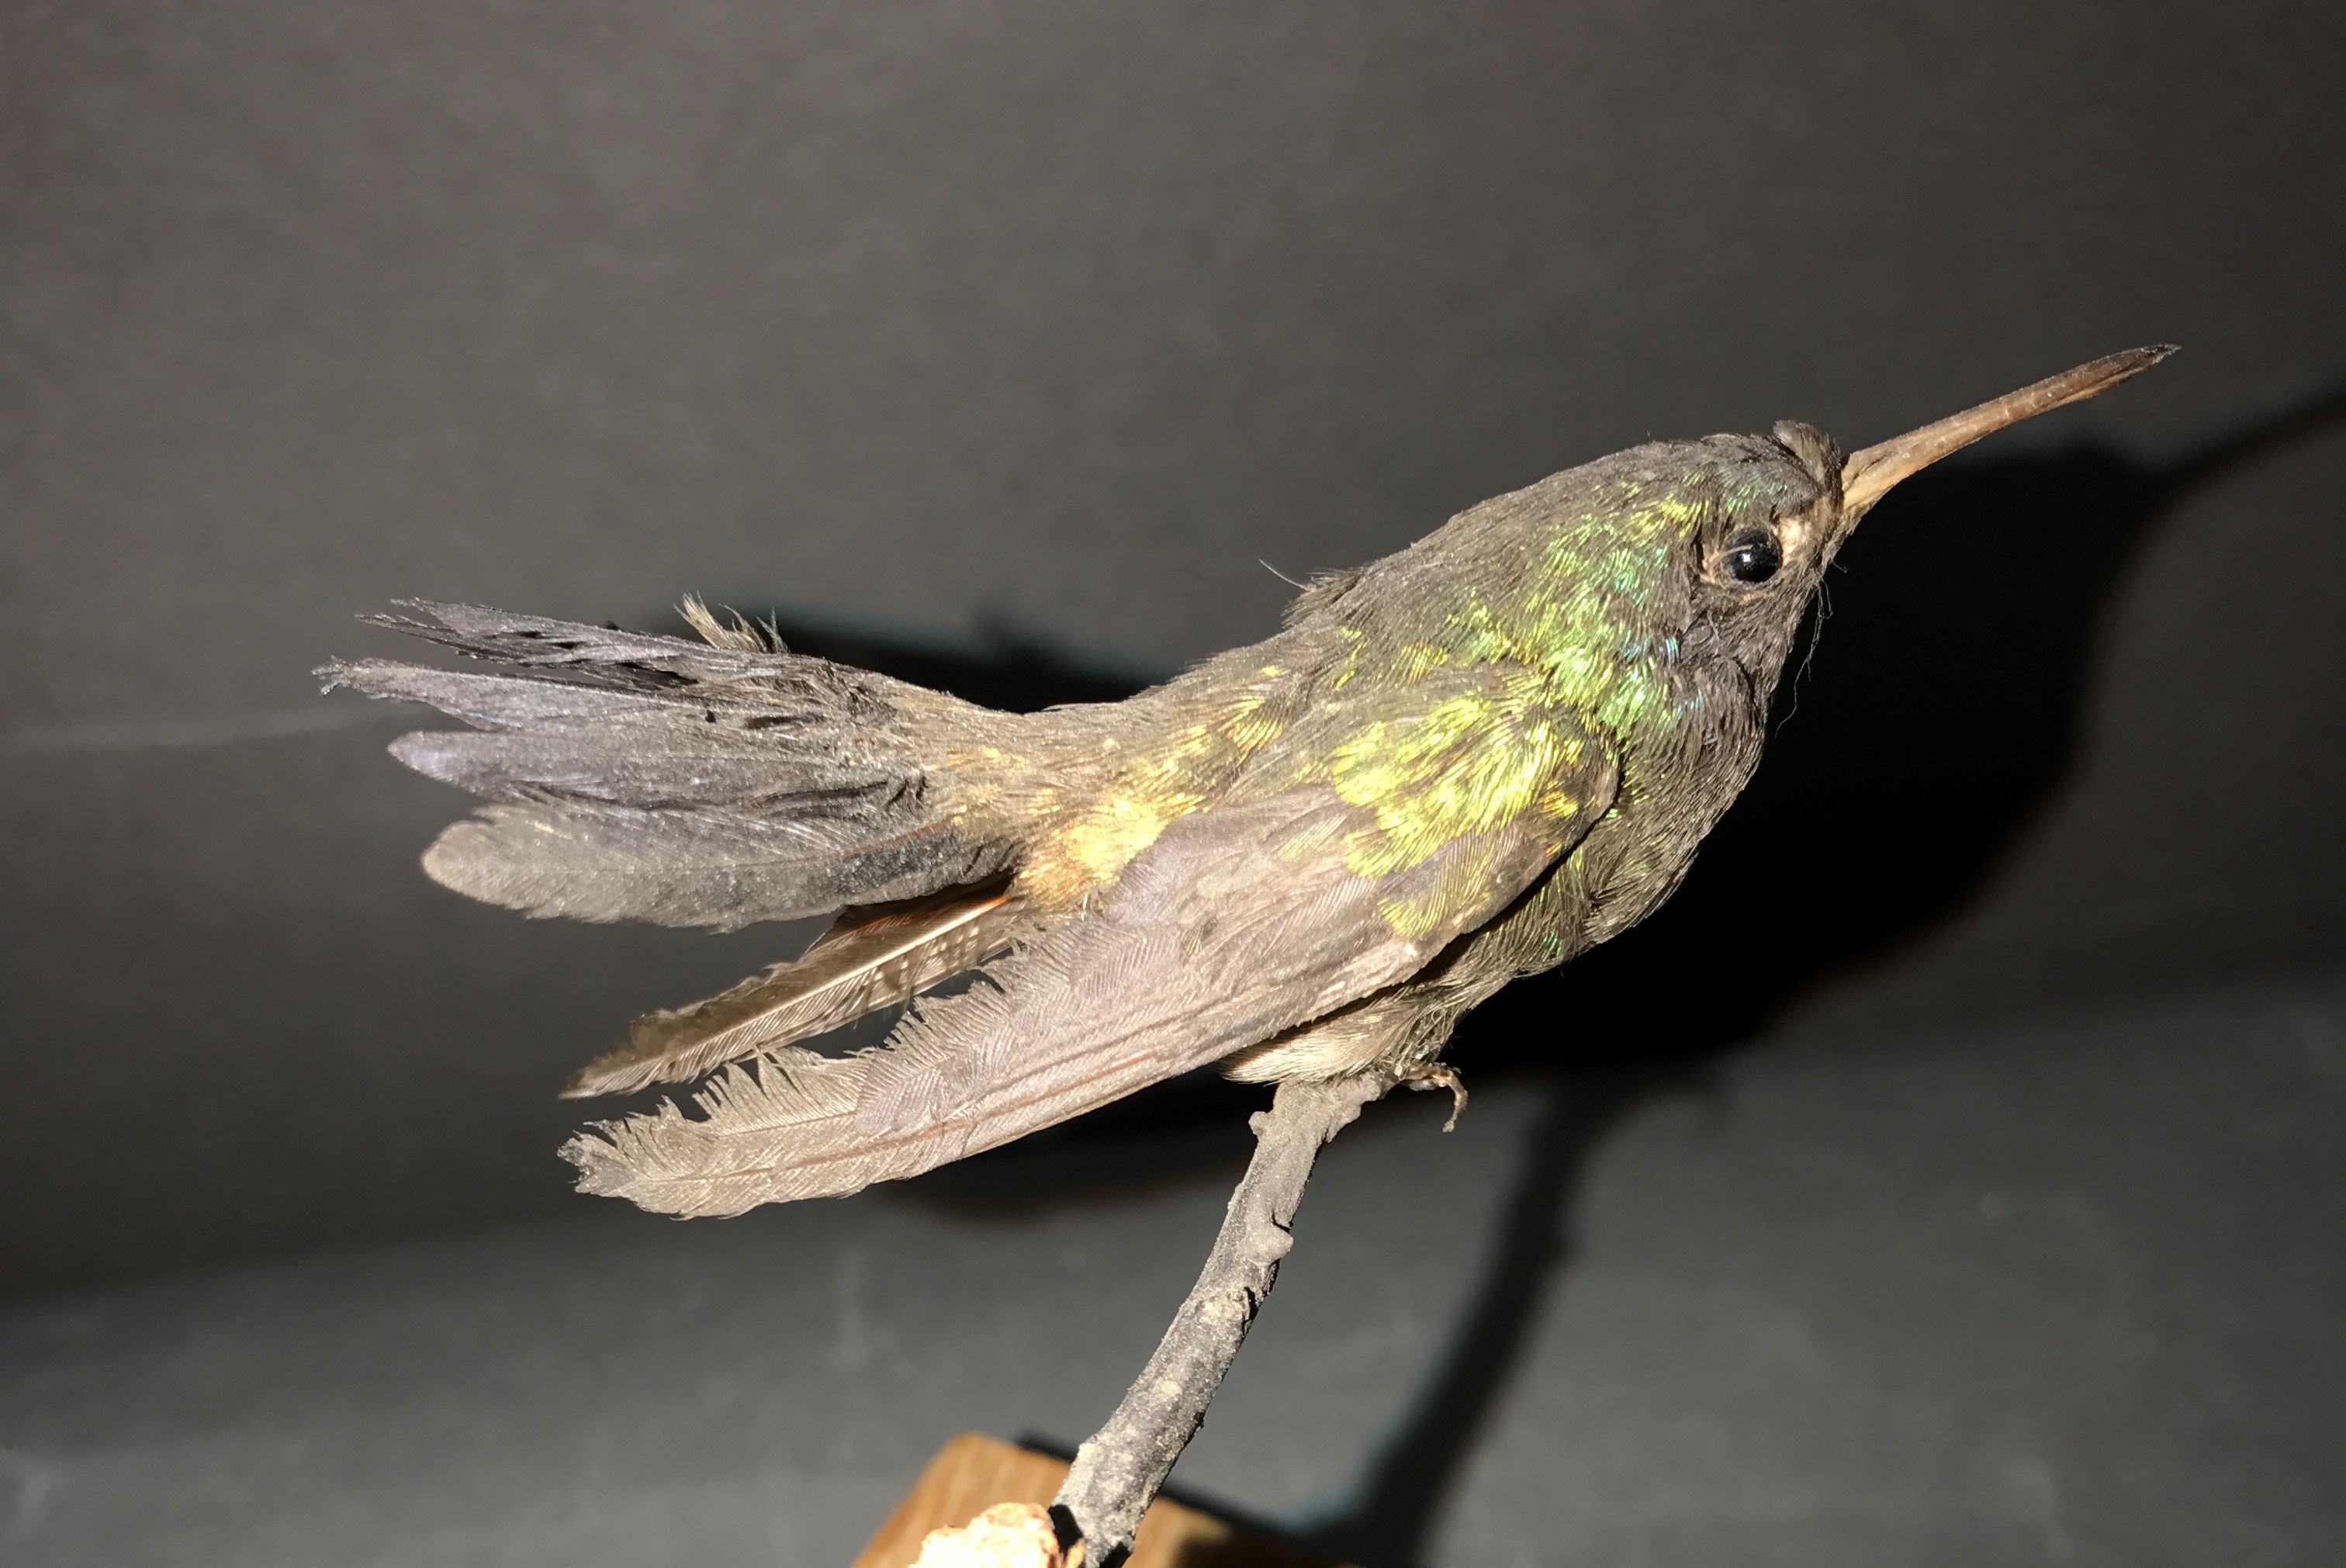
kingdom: Animalia
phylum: Chordata
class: Aves
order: Apodiformes
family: Trochilidae
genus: Chlorestes
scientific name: Chlorestes cyanus
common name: White-chinned sapphire
